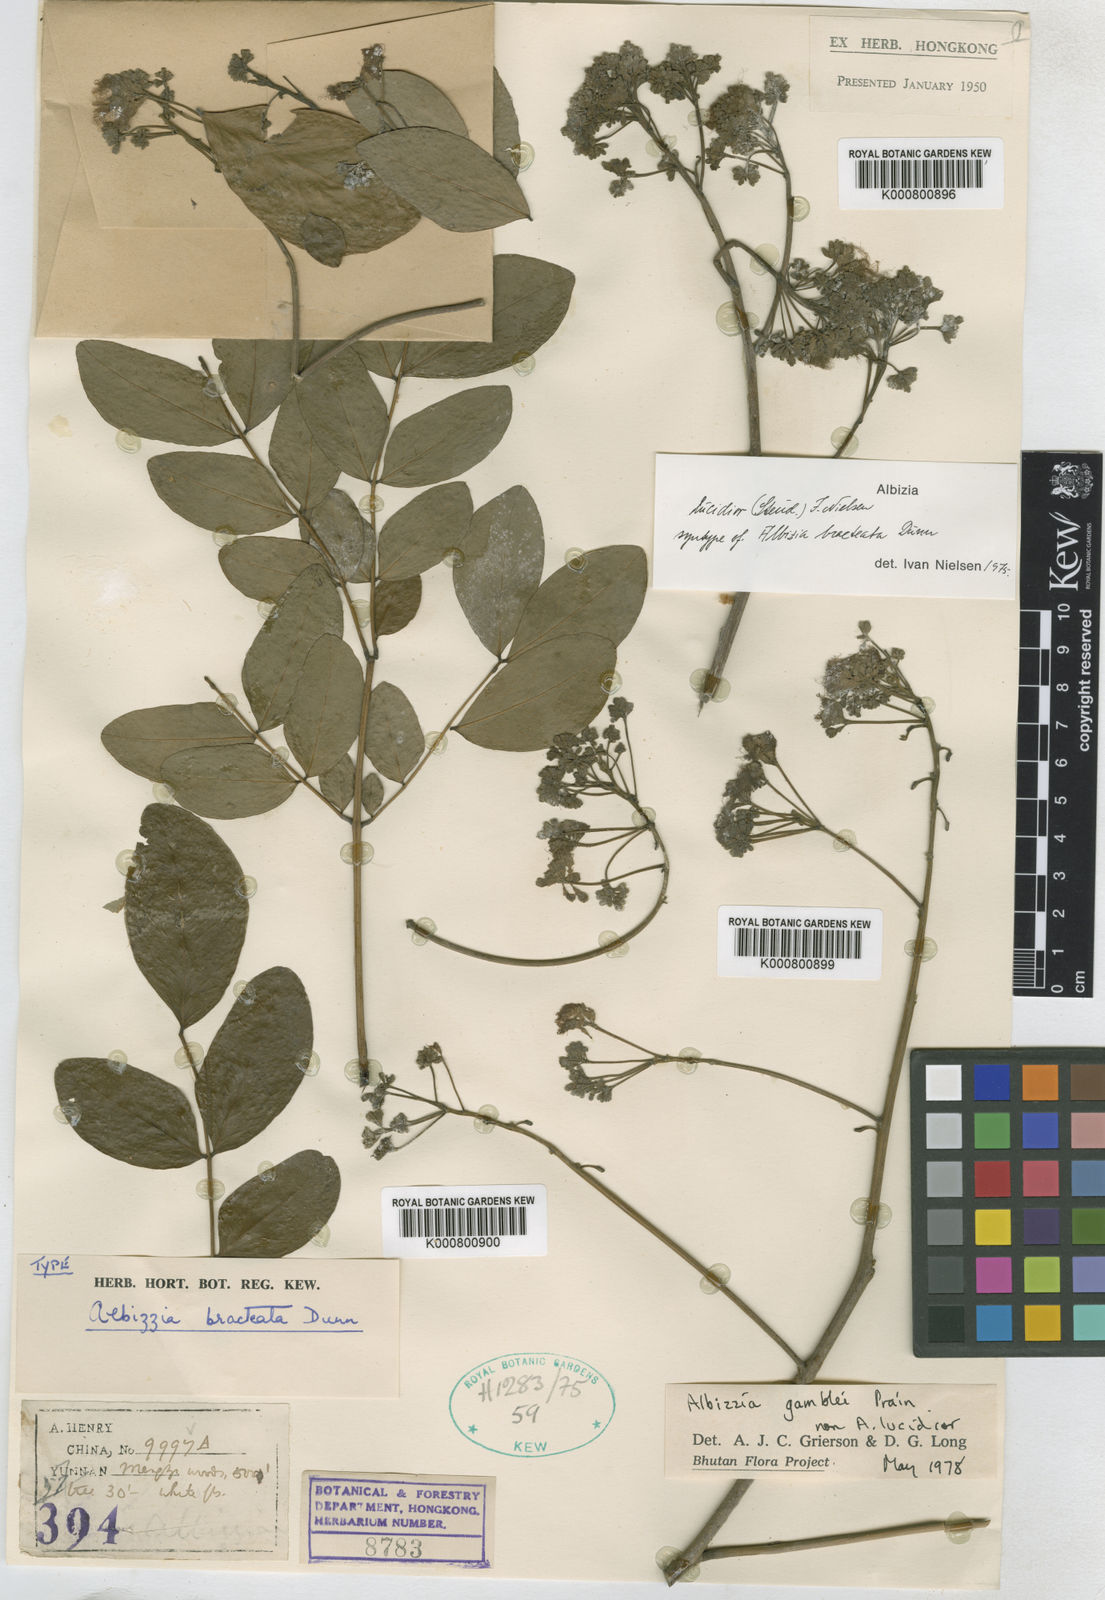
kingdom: Plantae
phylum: Tracheophyta
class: Magnoliopsida
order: Fabales
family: Fabaceae
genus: Albizia
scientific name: Albizia lucidior
